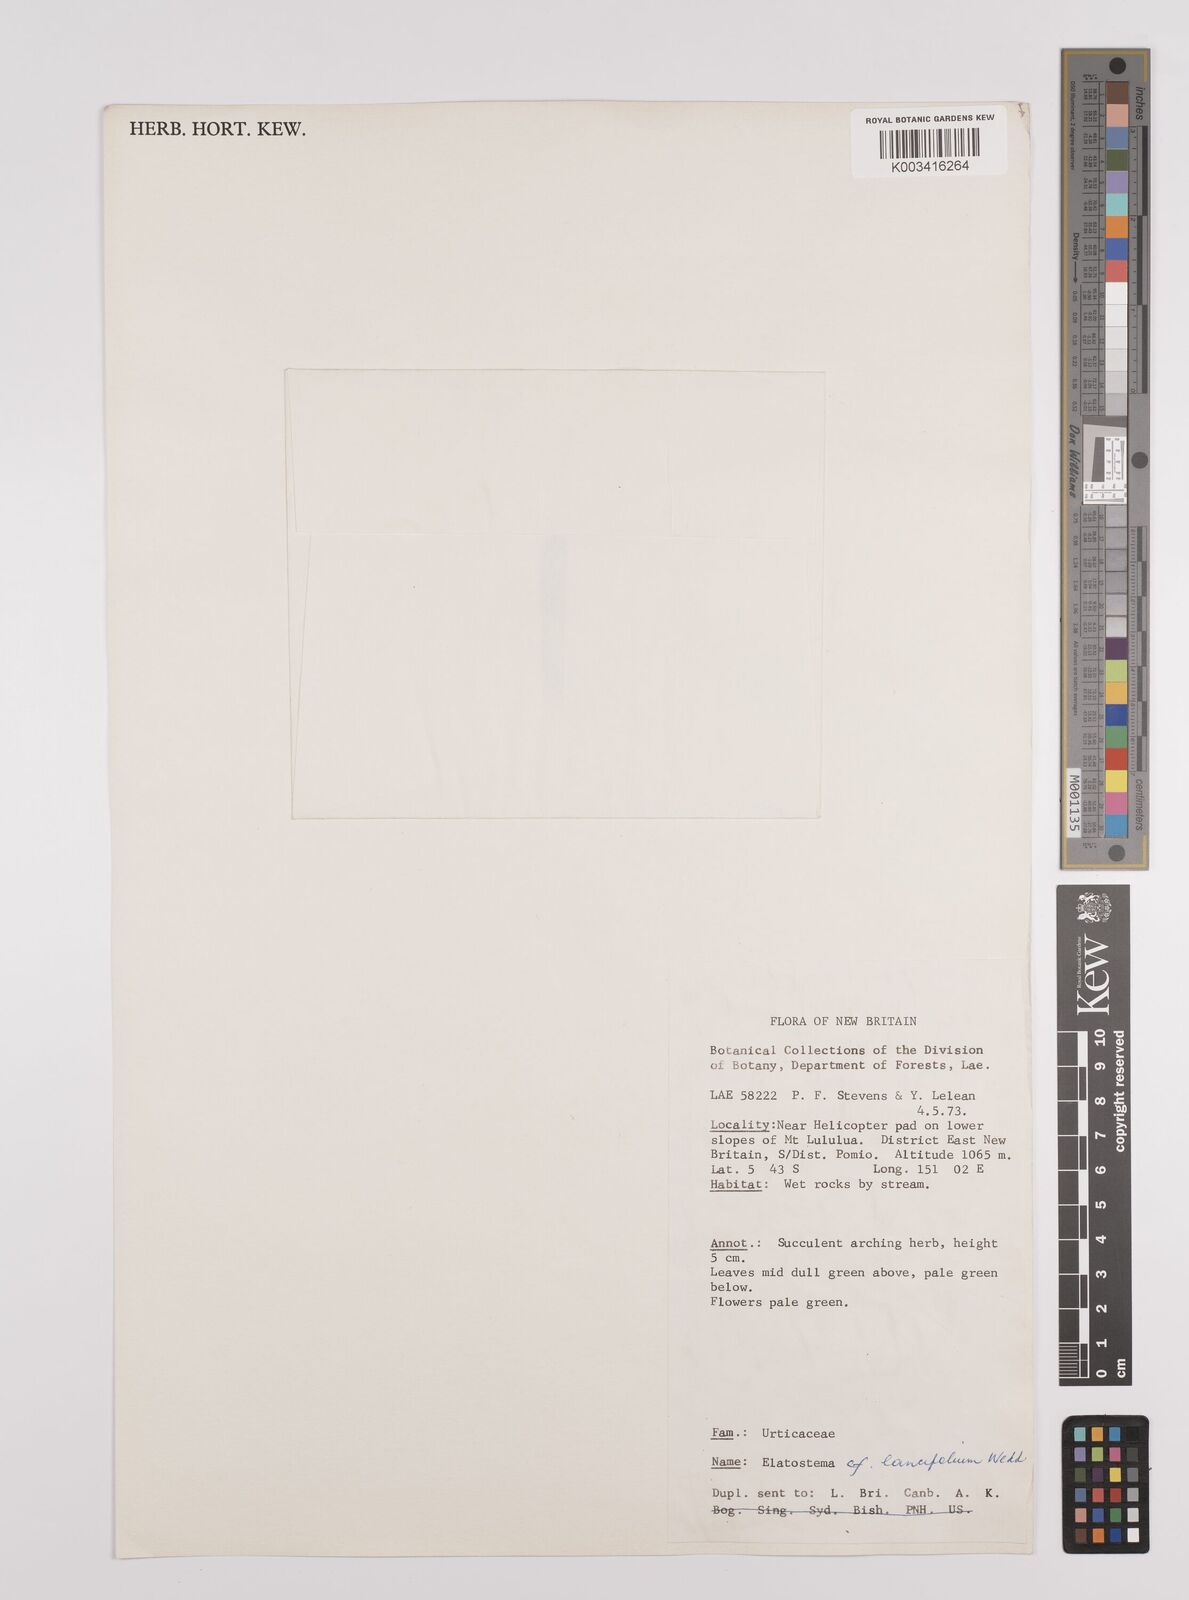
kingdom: Plantae
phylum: Tracheophyta
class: Magnoliopsida
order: Rosales
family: Urticaceae
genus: Elatostema
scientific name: Elatostema lancifolium
